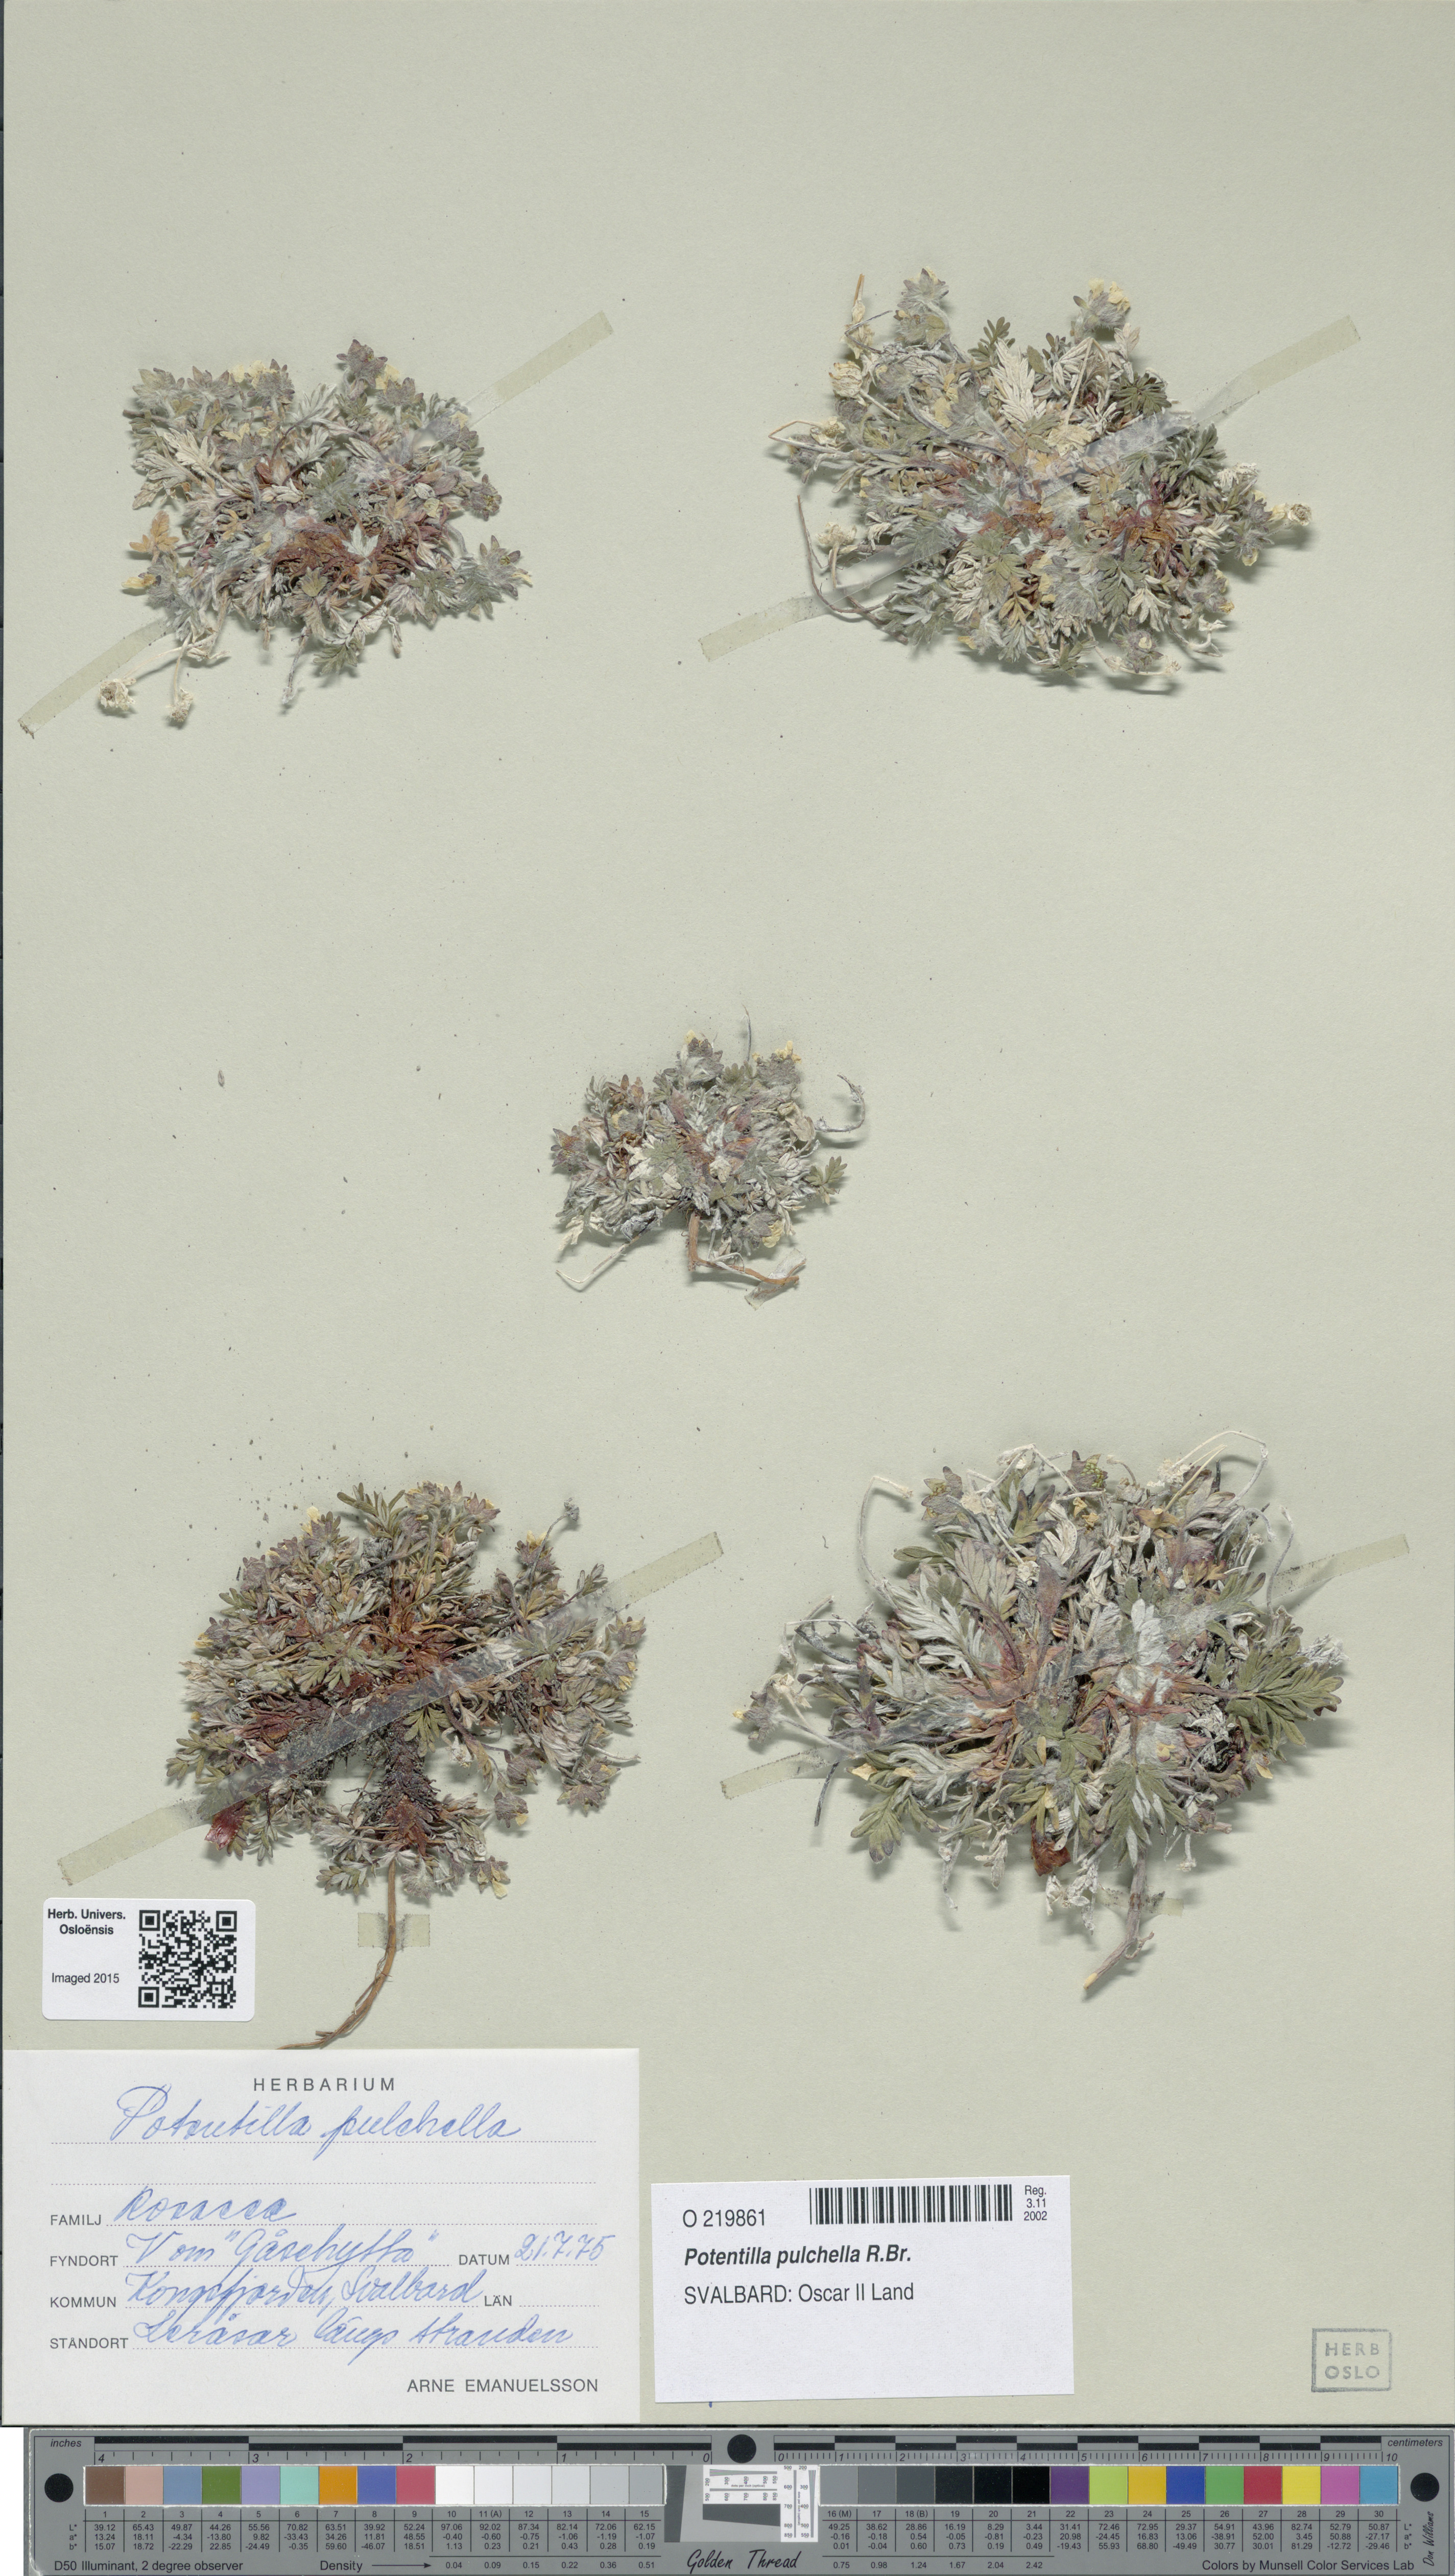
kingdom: Plantae
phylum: Tracheophyta
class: Magnoliopsida
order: Rosales
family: Rosaceae
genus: Potentilla
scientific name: Potentilla pulchella
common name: Pretty cinquefoil
